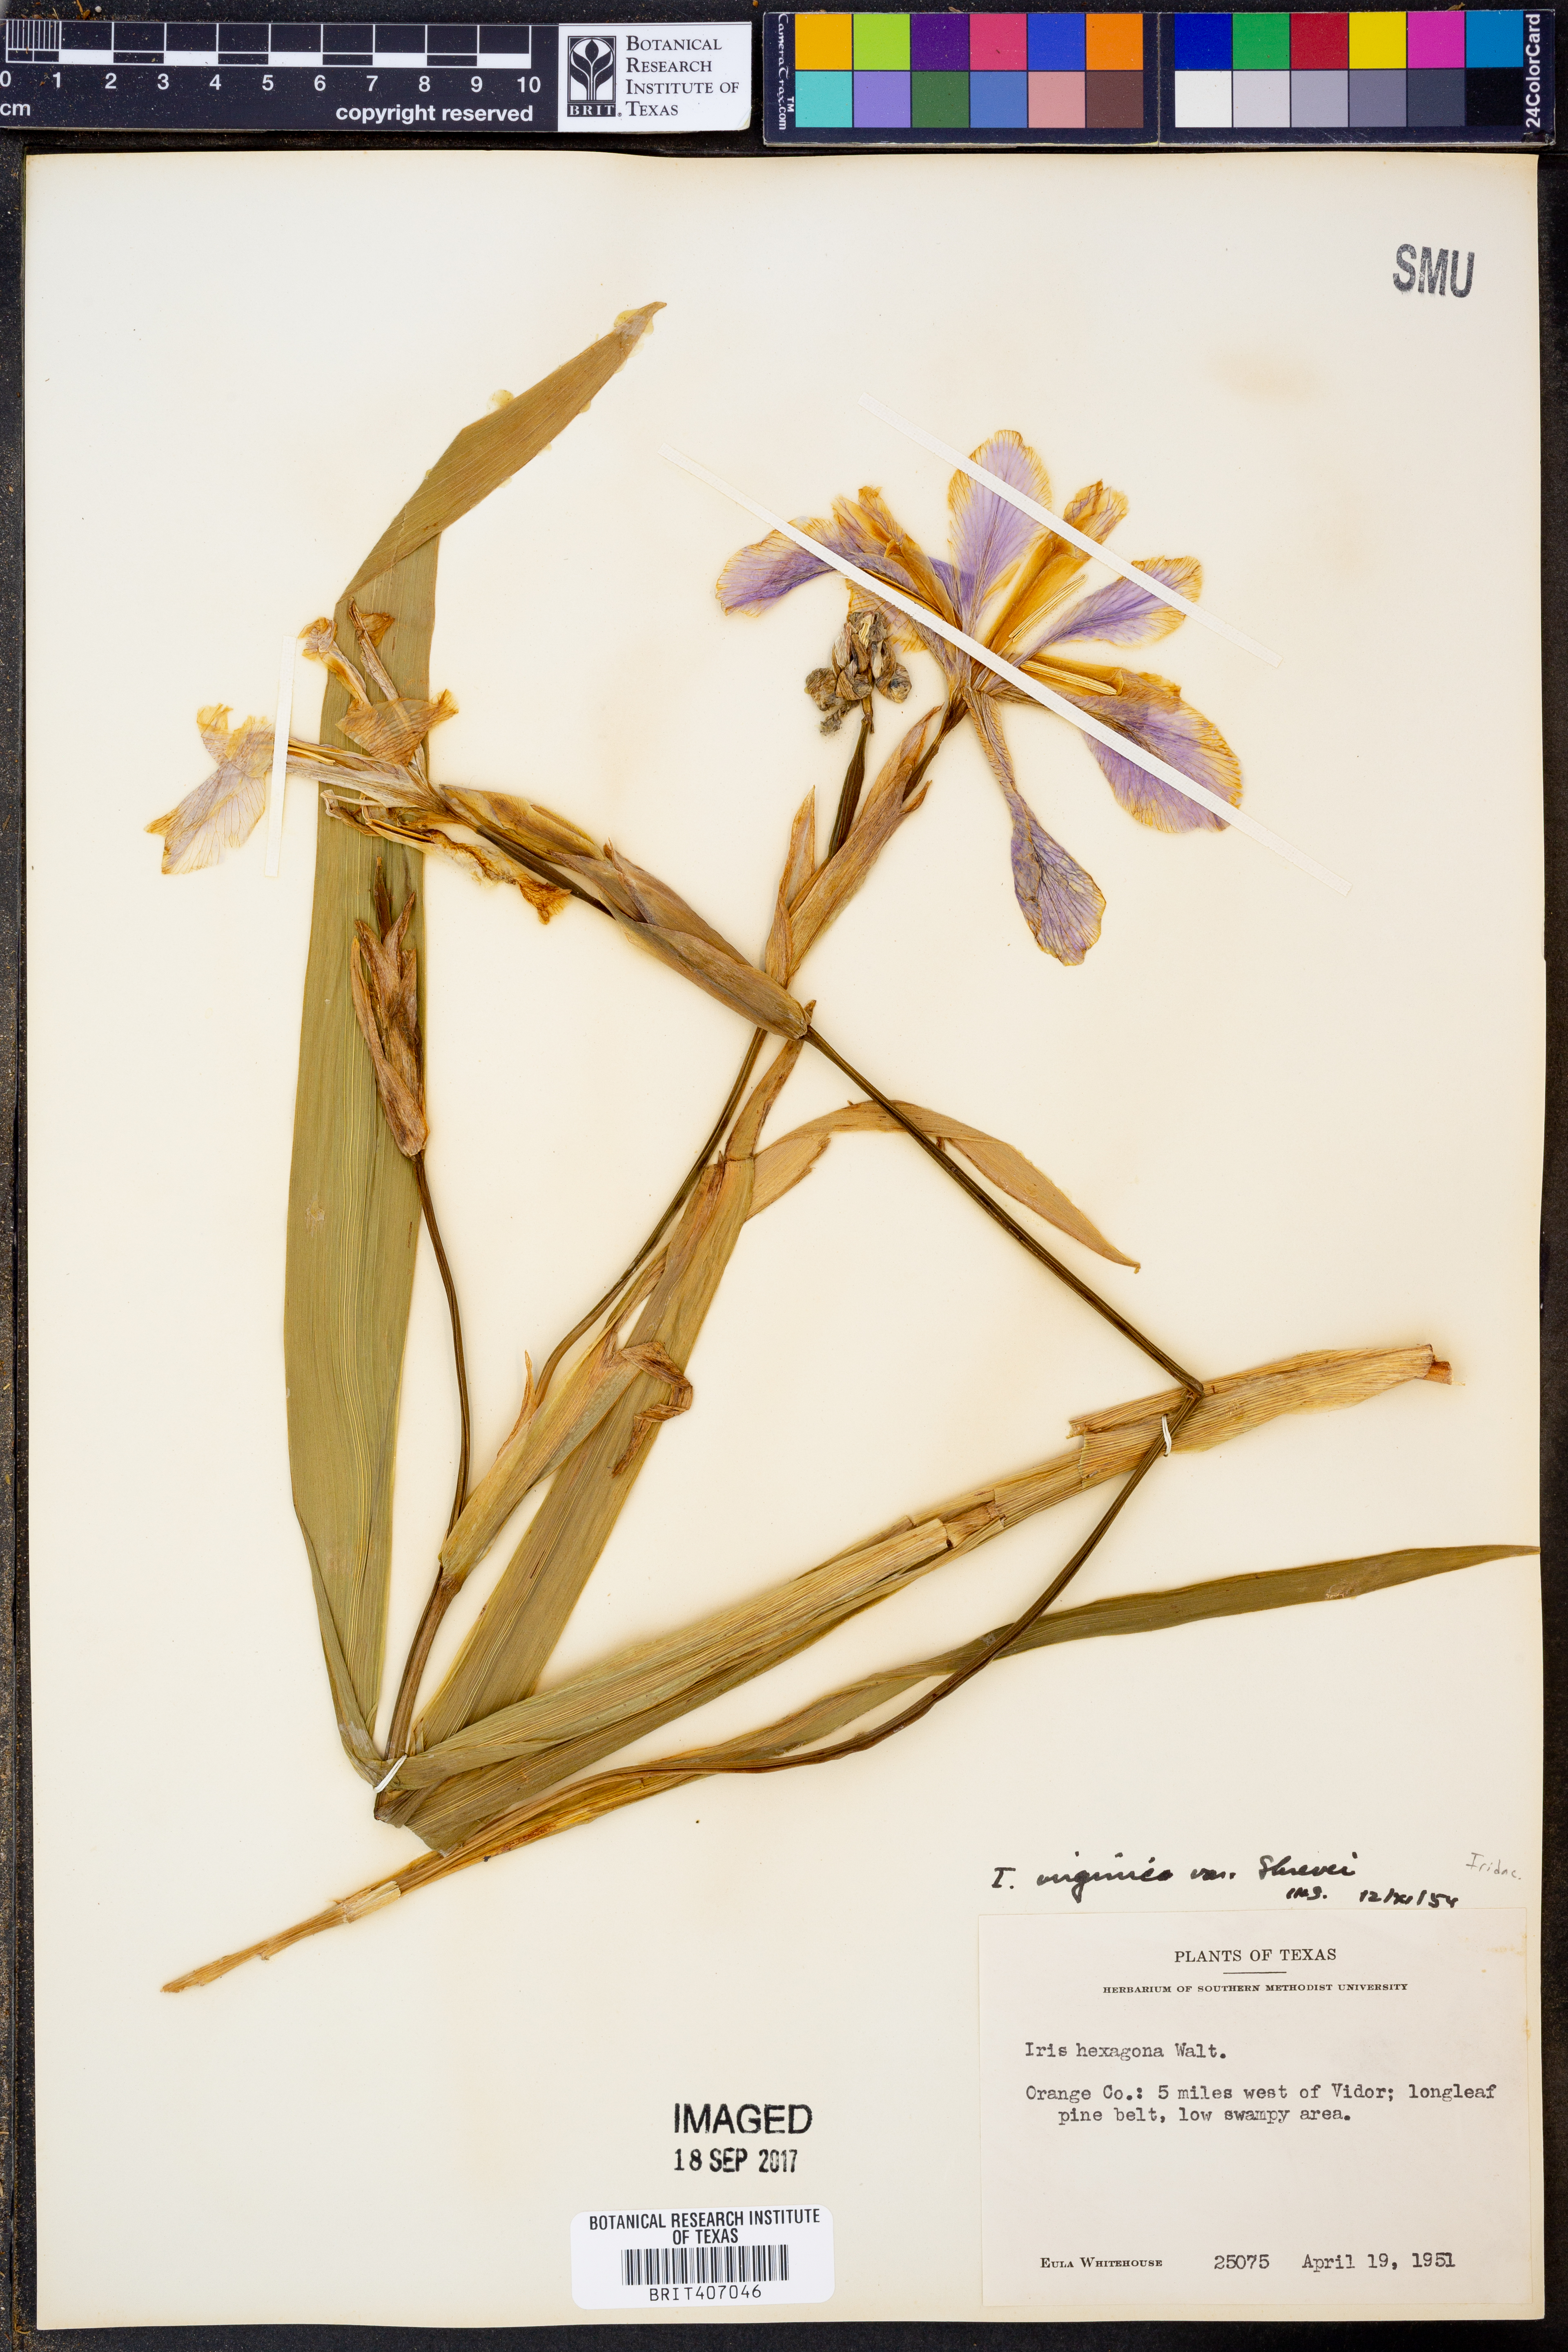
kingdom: Plantae
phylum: Tracheophyta
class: Liliopsida
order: Asparagales
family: Iridaceae
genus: Iris
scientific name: Iris virginica
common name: Southern blue flag
